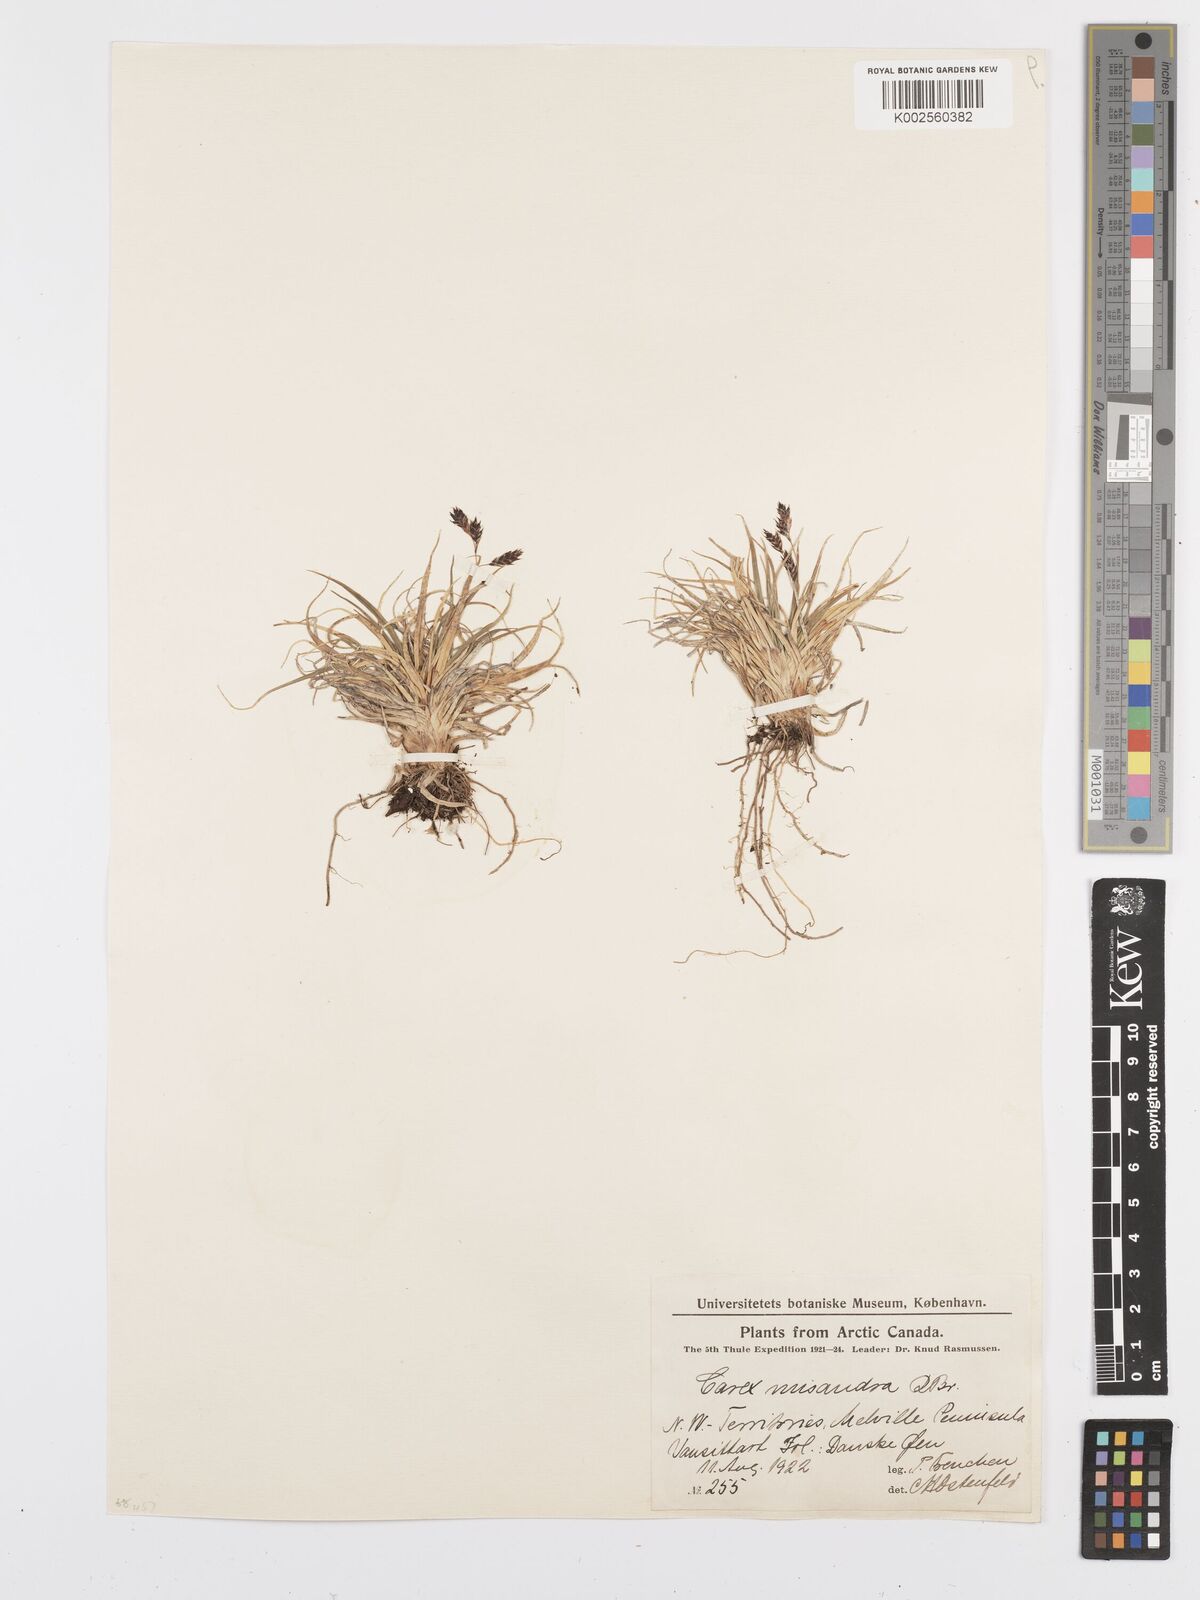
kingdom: Plantae
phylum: Tracheophyta
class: Liliopsida
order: Poales
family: Cyperaceae
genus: Carex
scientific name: Carex fuliginosa
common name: Few-flowered sedge
